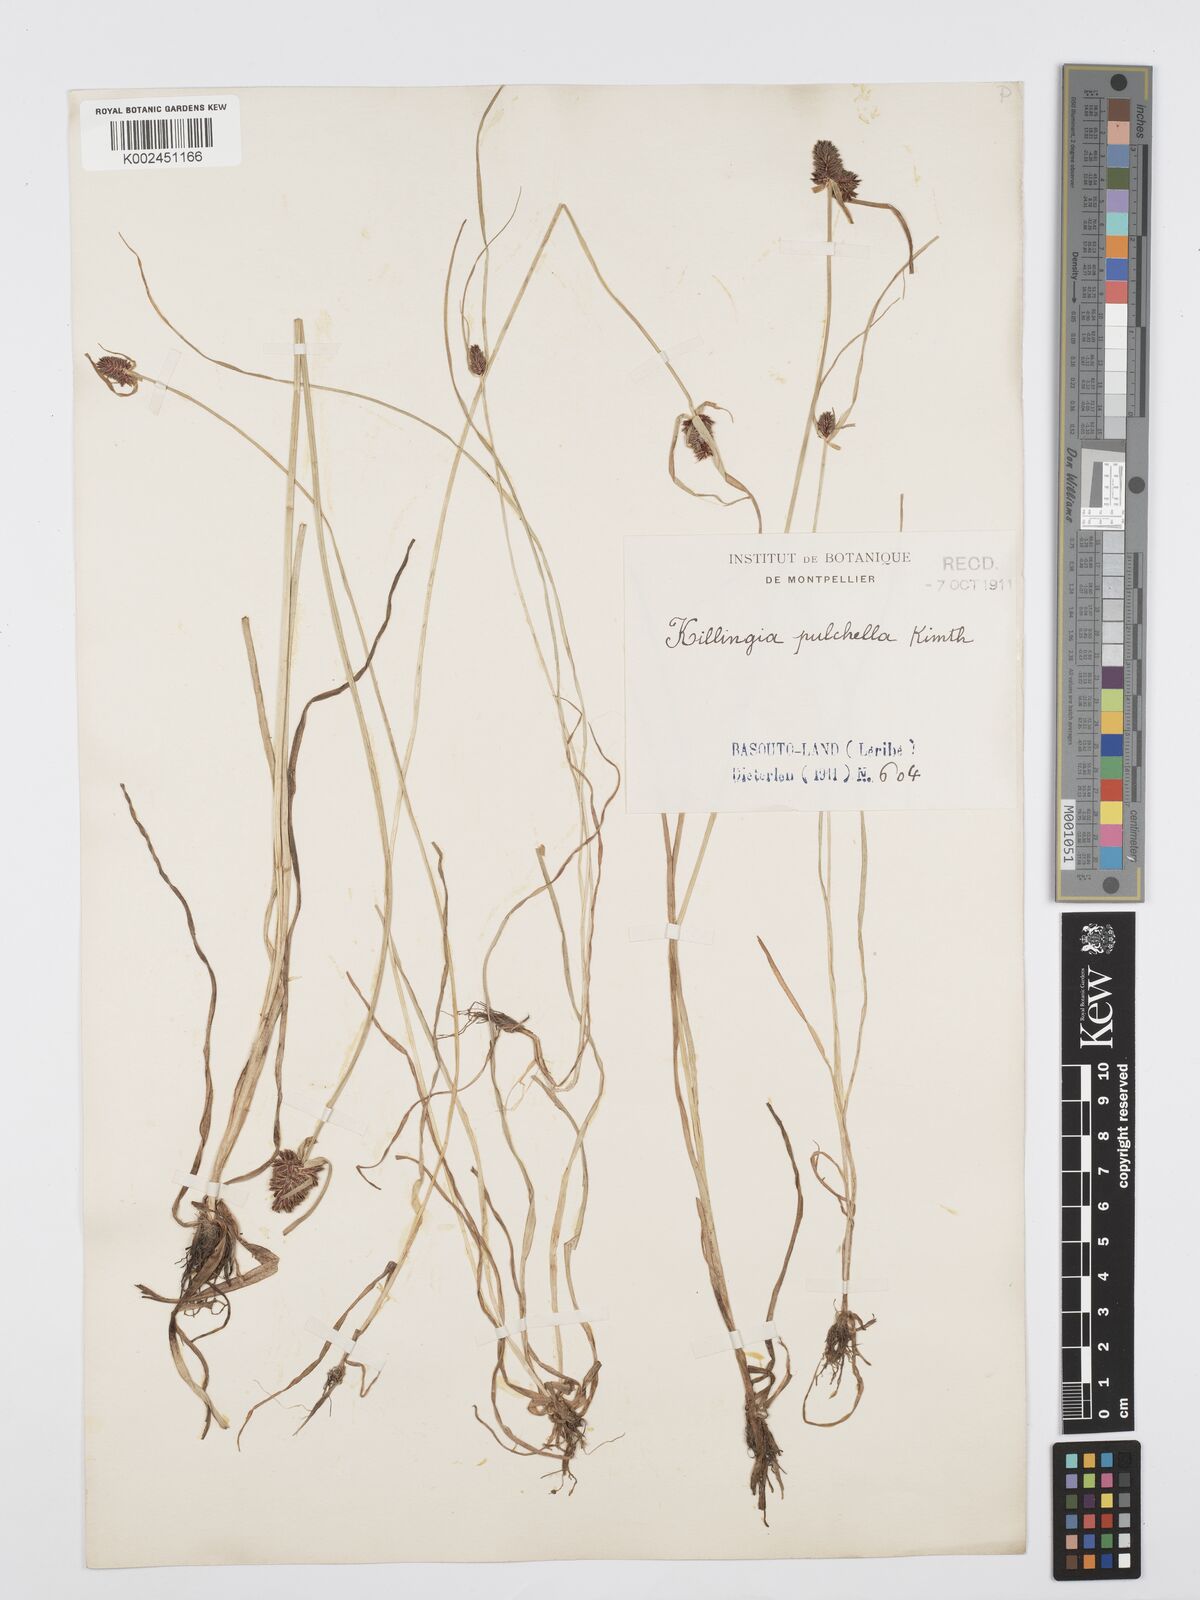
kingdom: Plantae
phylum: Tracheophyta
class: Liliopsida
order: Poales
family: Cyperaceae
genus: Cyperus
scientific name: Cyperus bracheilema
